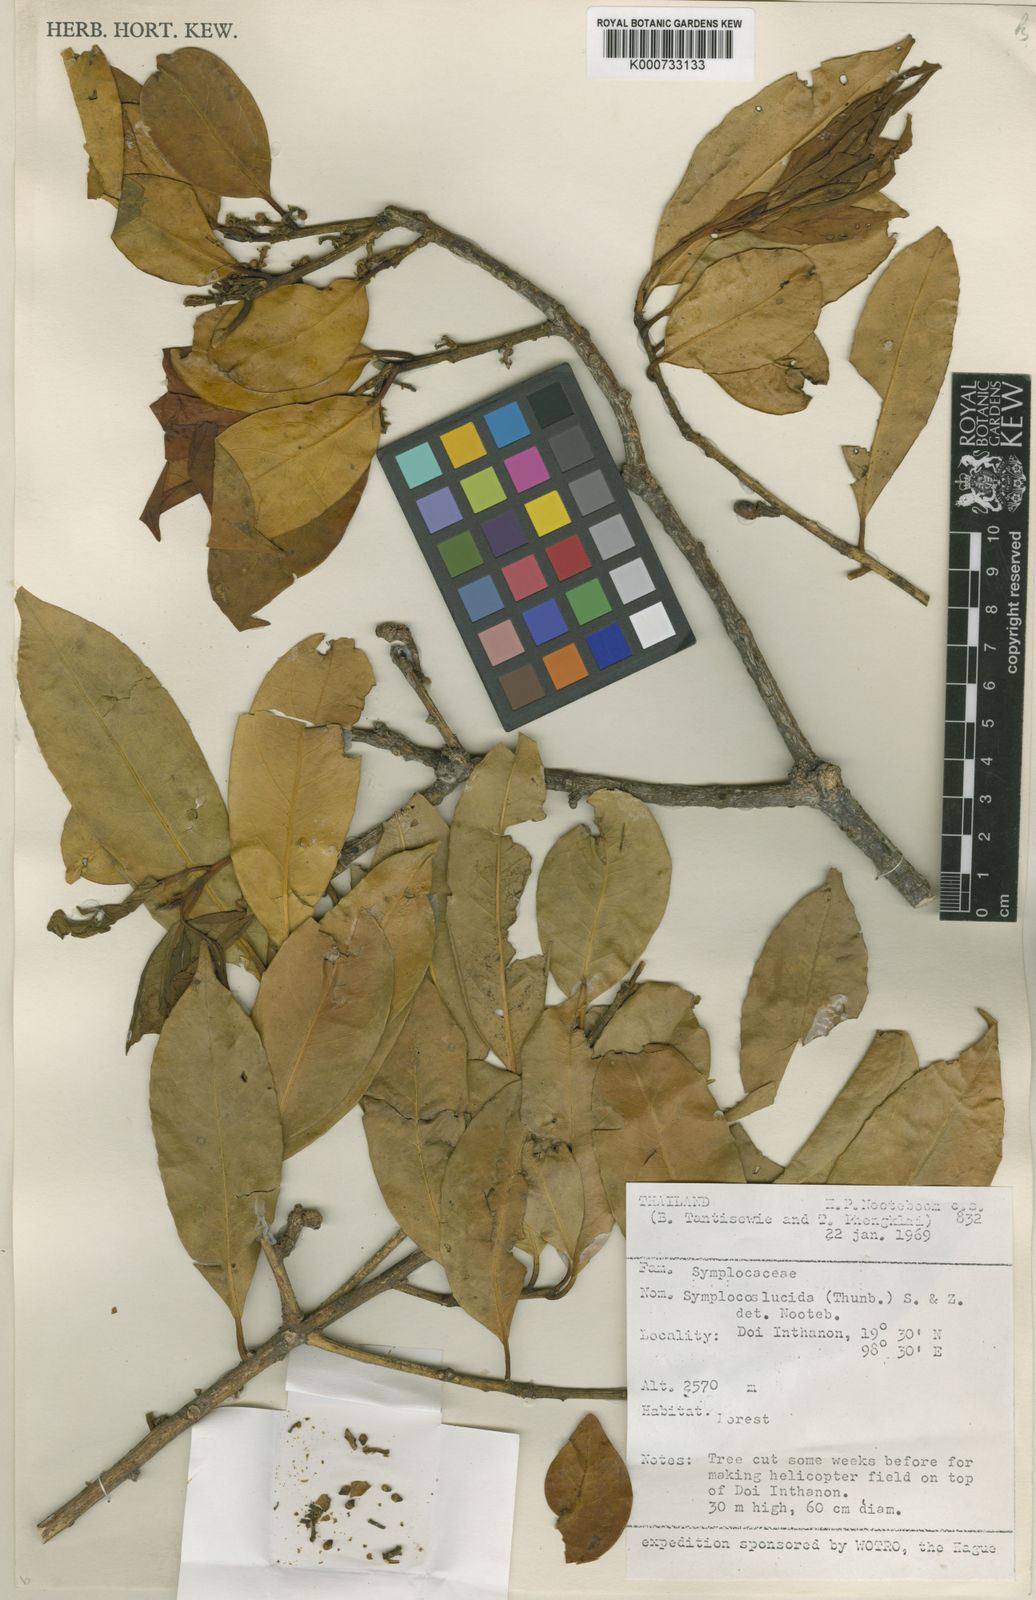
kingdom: Plantae
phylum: Tracheophyta
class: Magnoliopsida
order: Ericales
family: Symplocaceae
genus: Symplocos
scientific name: Symplocos
